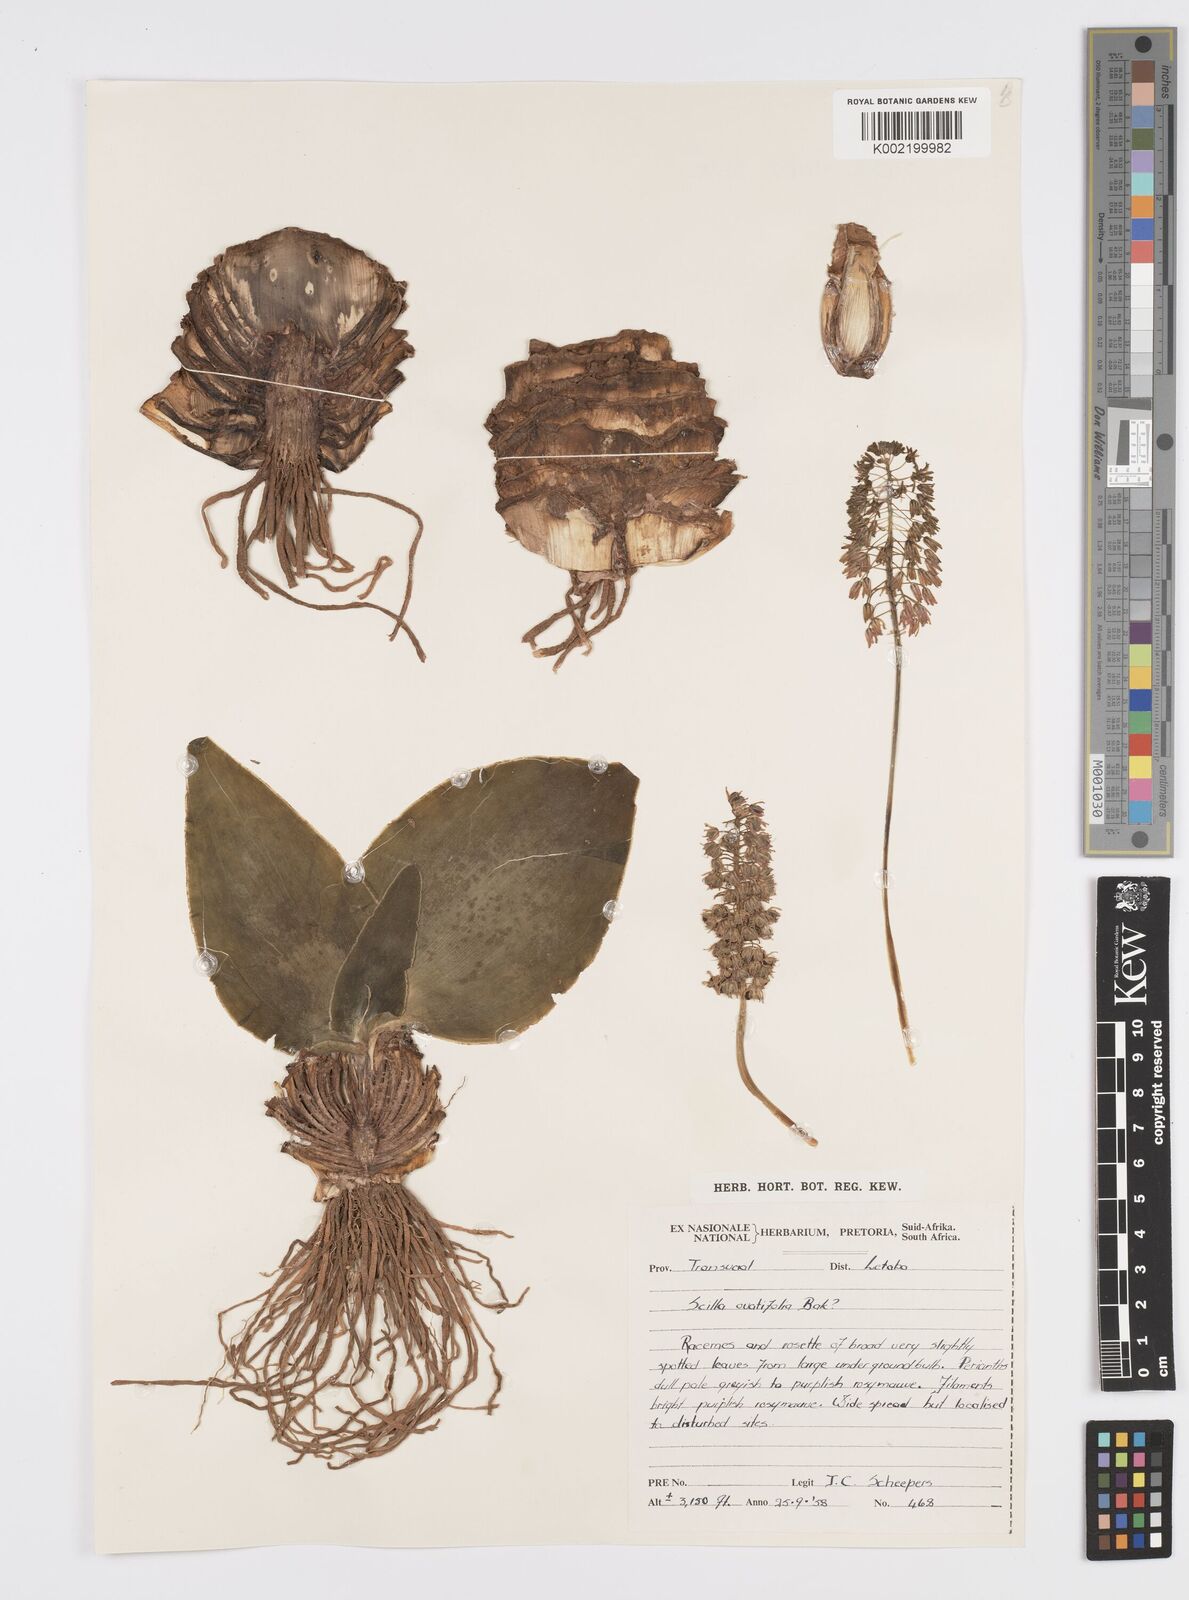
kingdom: Plantae
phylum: Tracheophyta
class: Liliopsida
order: Asparagales
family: Asparagaceae
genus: Ledebouria
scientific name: Ledebouria ovatifolia
